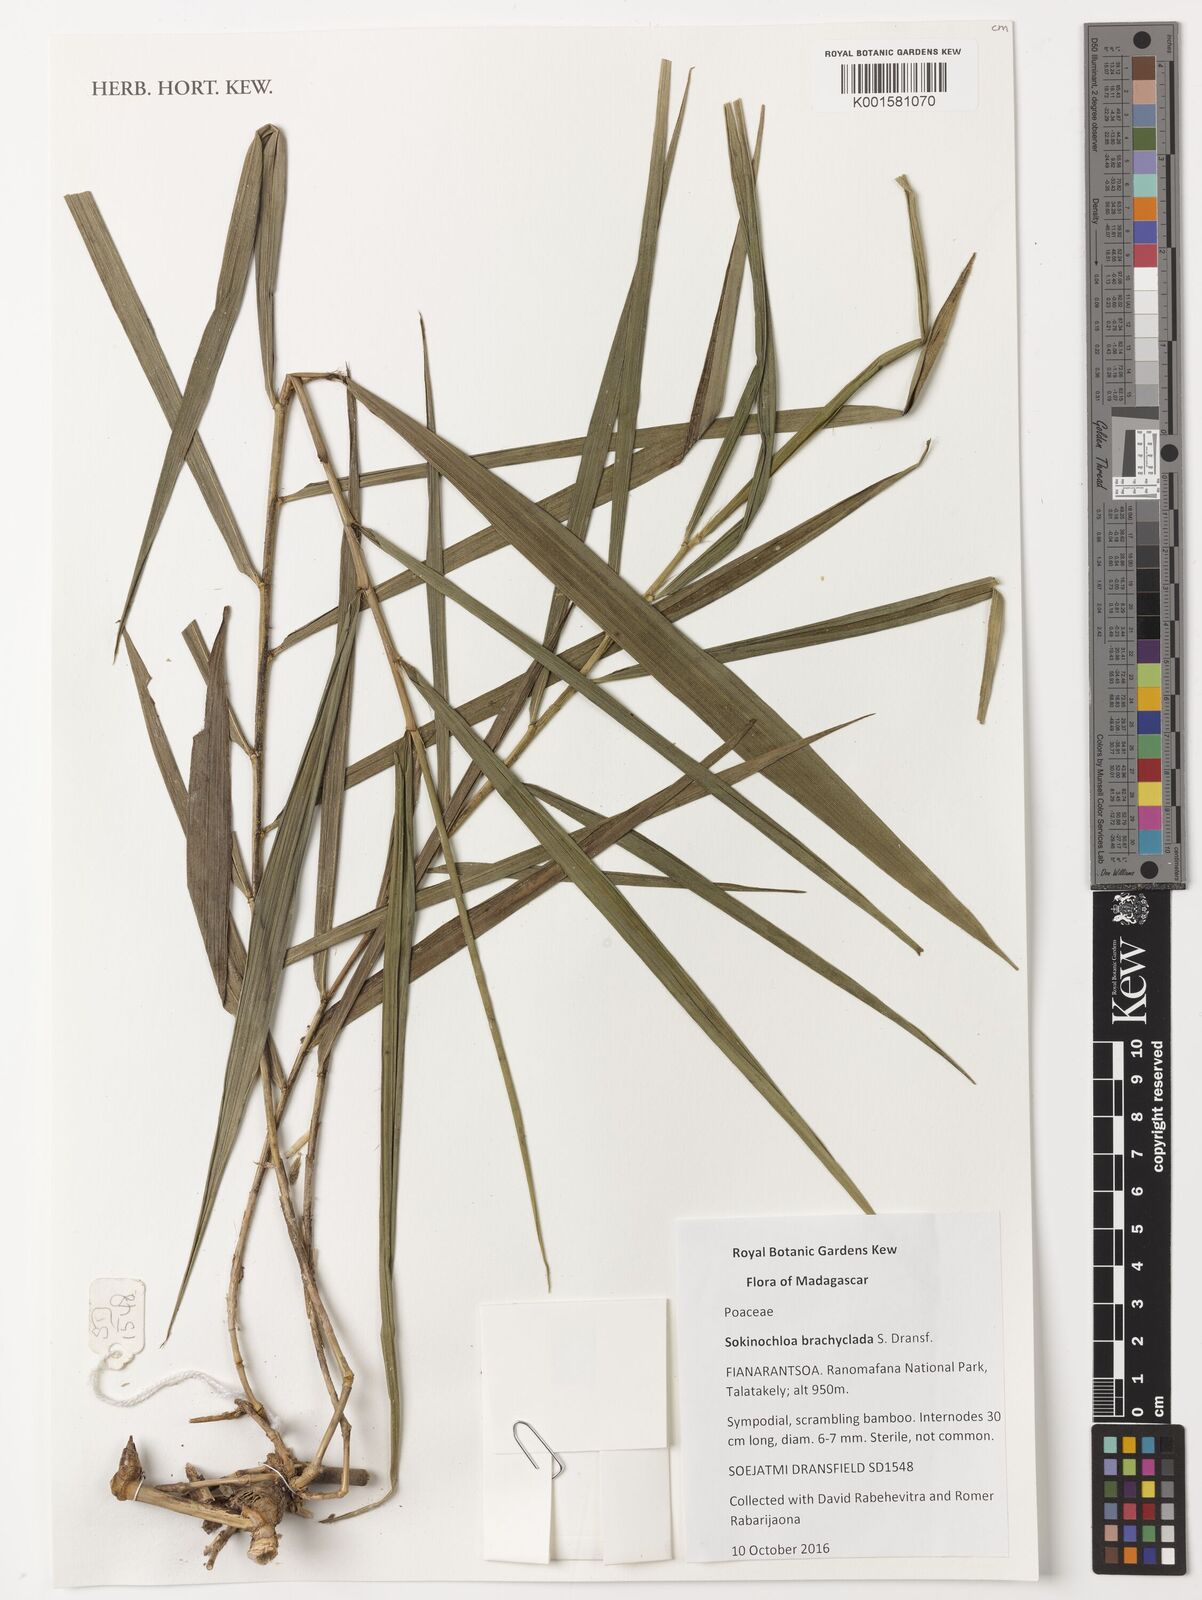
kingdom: Plantae
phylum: Tracheophyta
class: Liliopsida
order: Poales
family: Poaceae
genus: Sokinochloa
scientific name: Sokinochloa brachyclada
